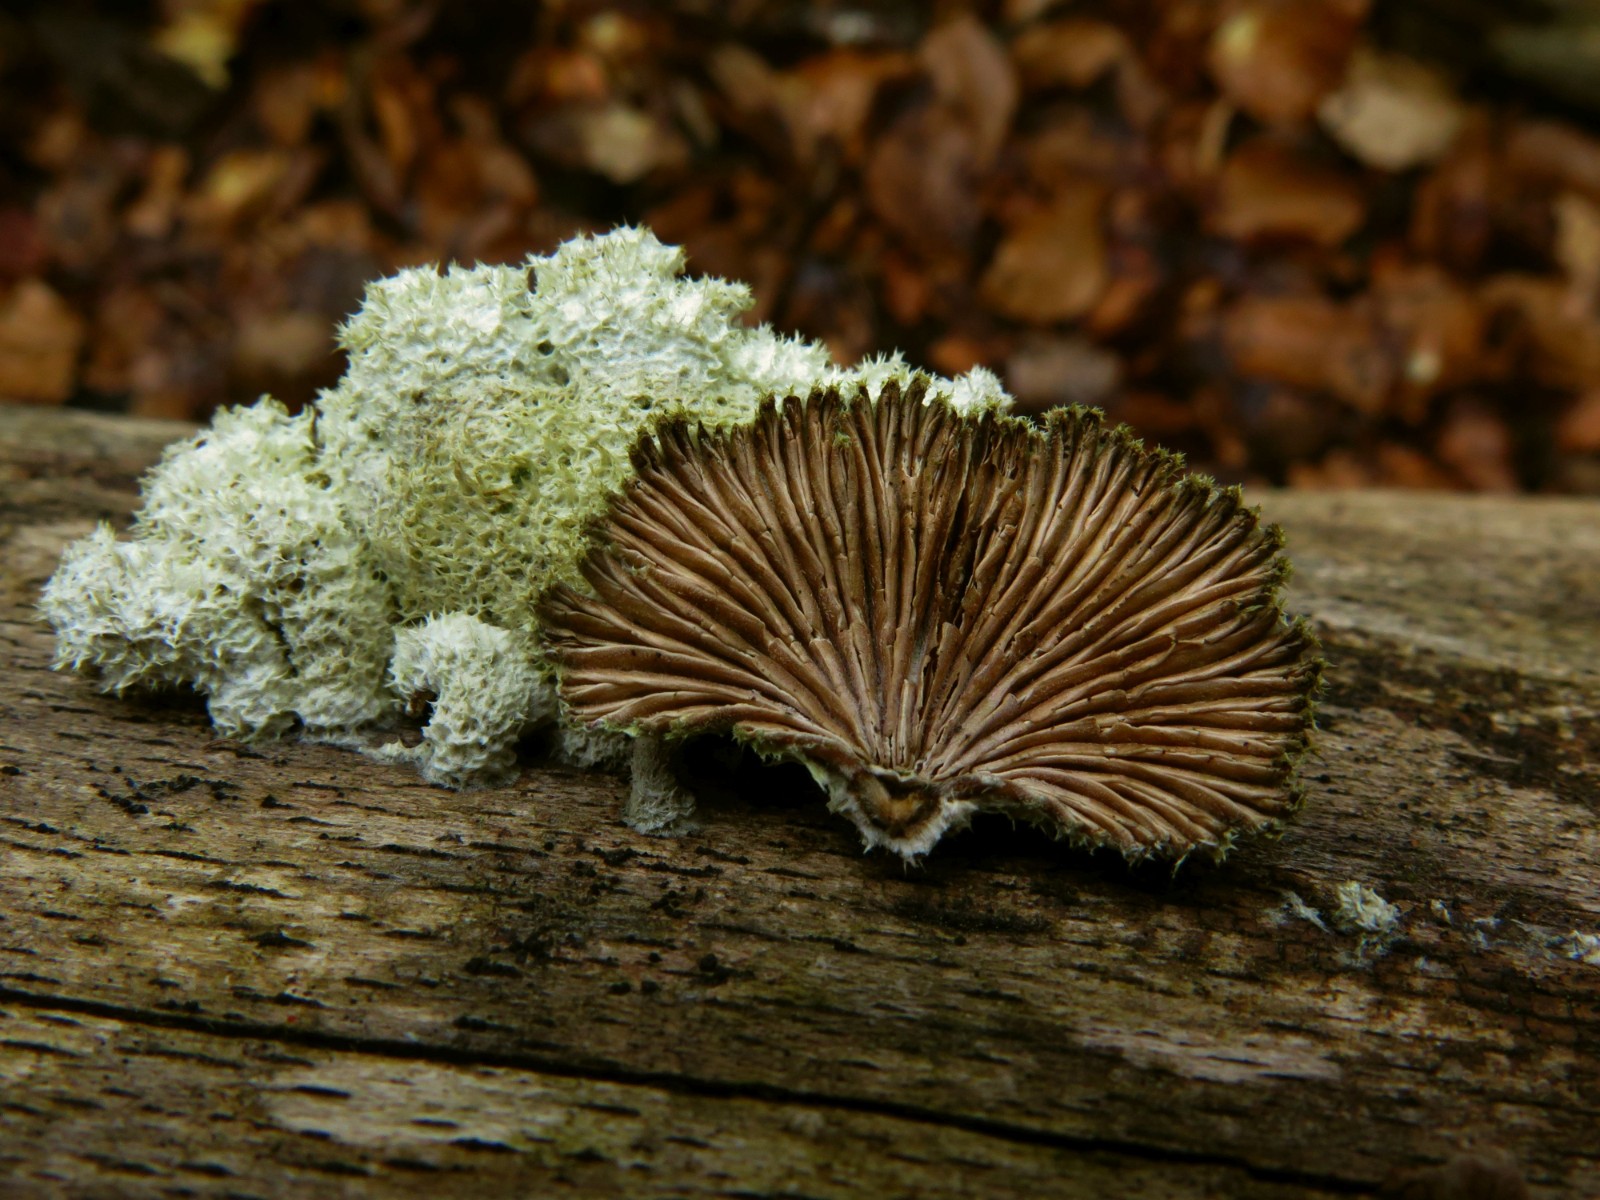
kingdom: Fungi
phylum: Basidiomycota
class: Agaricomycetes
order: Agaricales
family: Schizophyllaceae
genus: Schizophyllum
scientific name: Schizophyllum commune
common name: kløvblad
